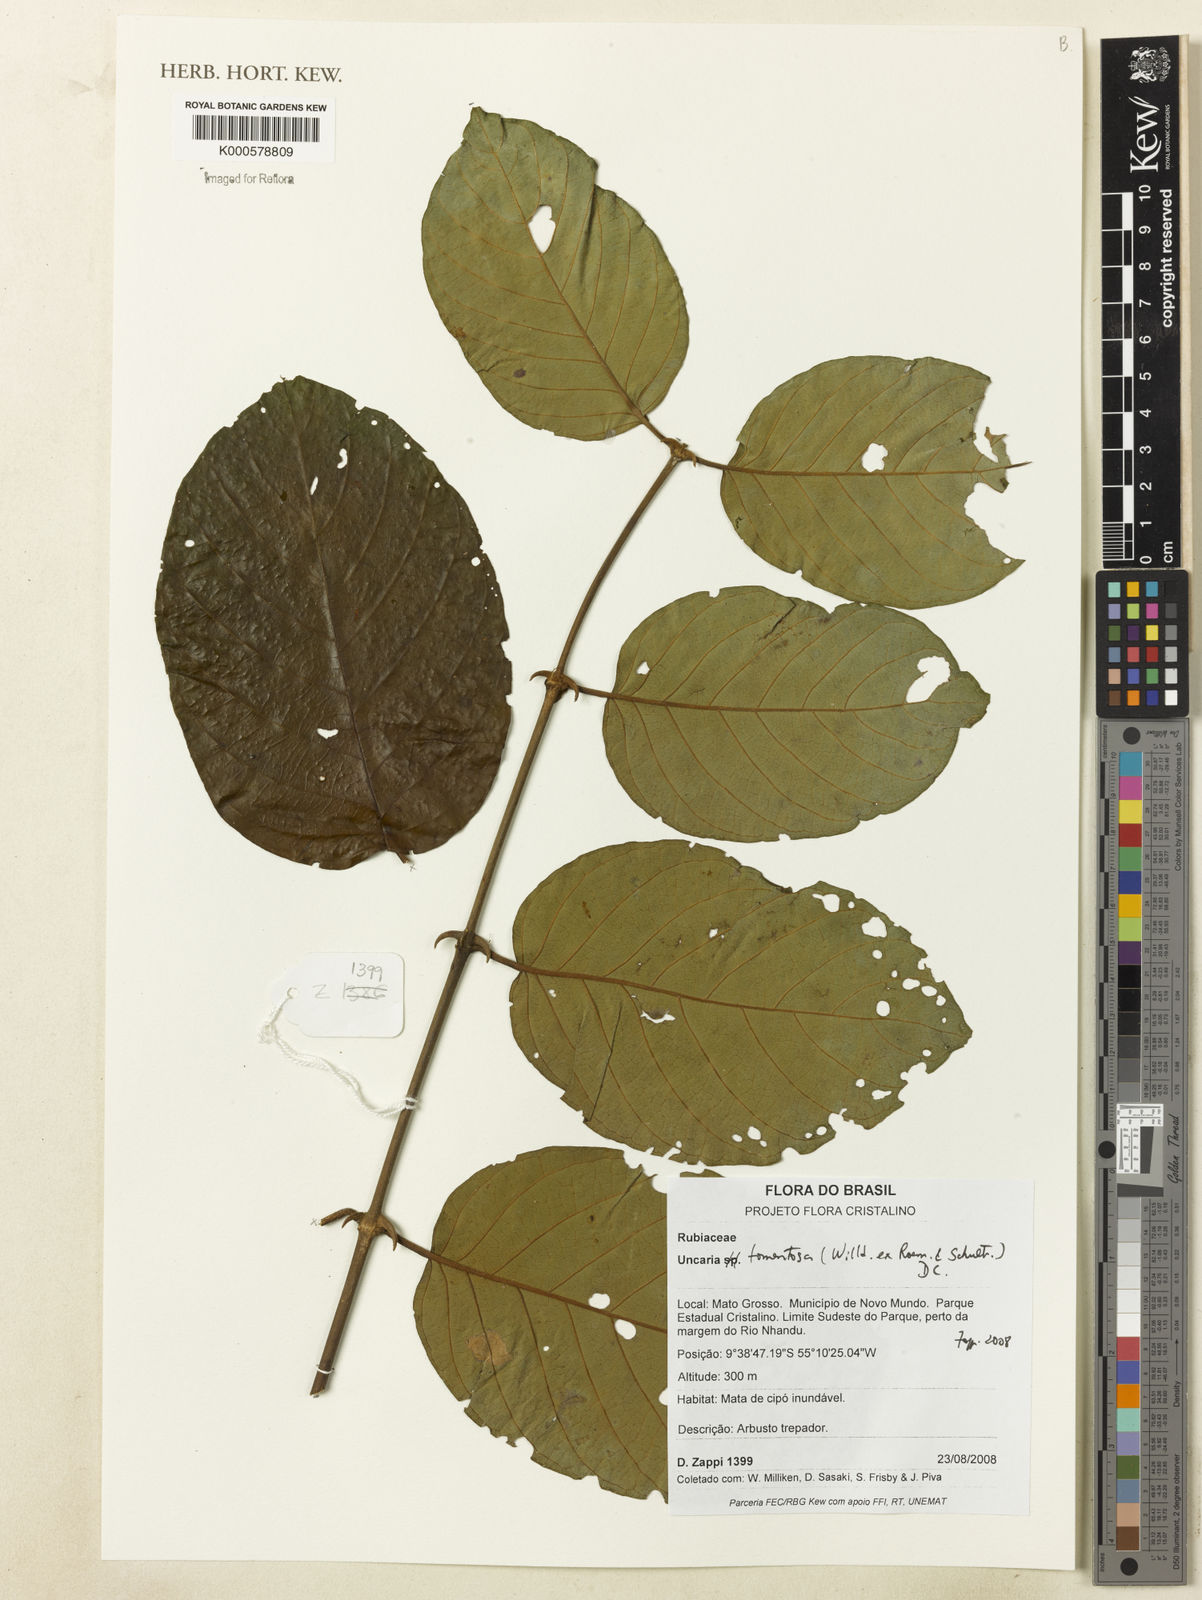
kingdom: Plantae
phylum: Tracheophyta
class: Magnoliopsida
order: Gentianales
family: Rubiaceae
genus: Uncaria
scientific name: Uncaria tomentosa
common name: Cat's-claw
